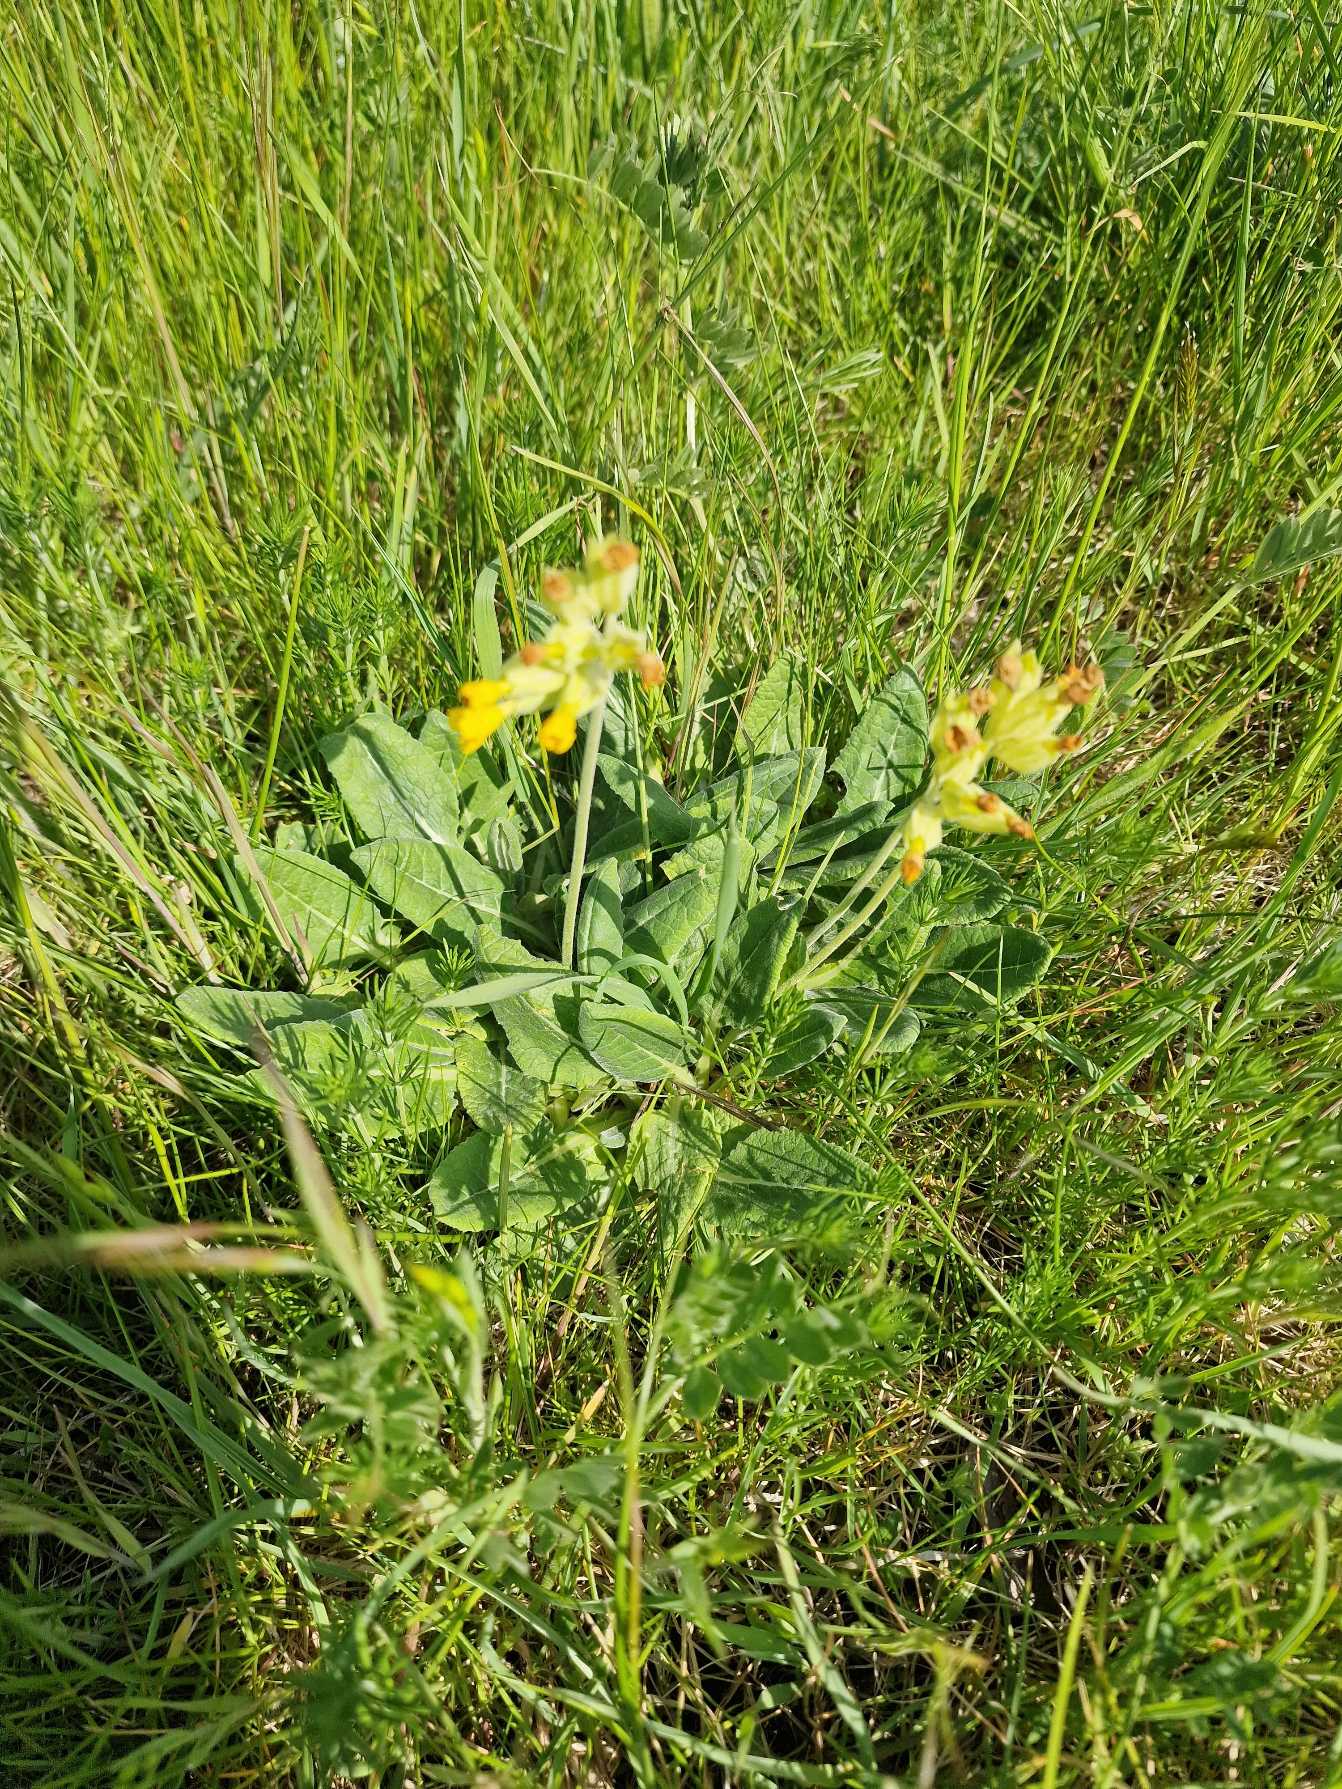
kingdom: Plantae
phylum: Tracheophyta
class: Magnoliopsida
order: Ericales
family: Primulaceae
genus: Primula
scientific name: Primula veris
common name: Hulkravet kodriver
